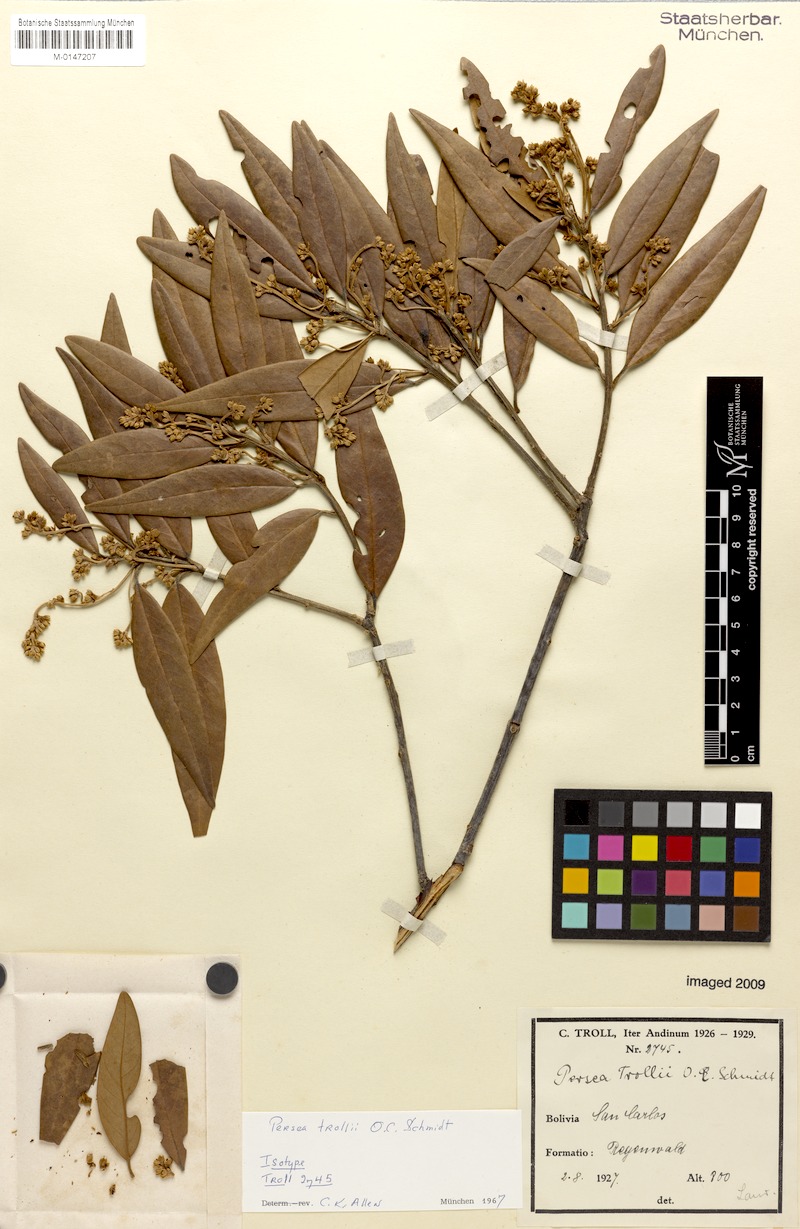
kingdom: Plantae
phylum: Tracheophyta
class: Magnoliopsida
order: Laurales
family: Lauraceae
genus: Persea
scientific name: Persea trollii
